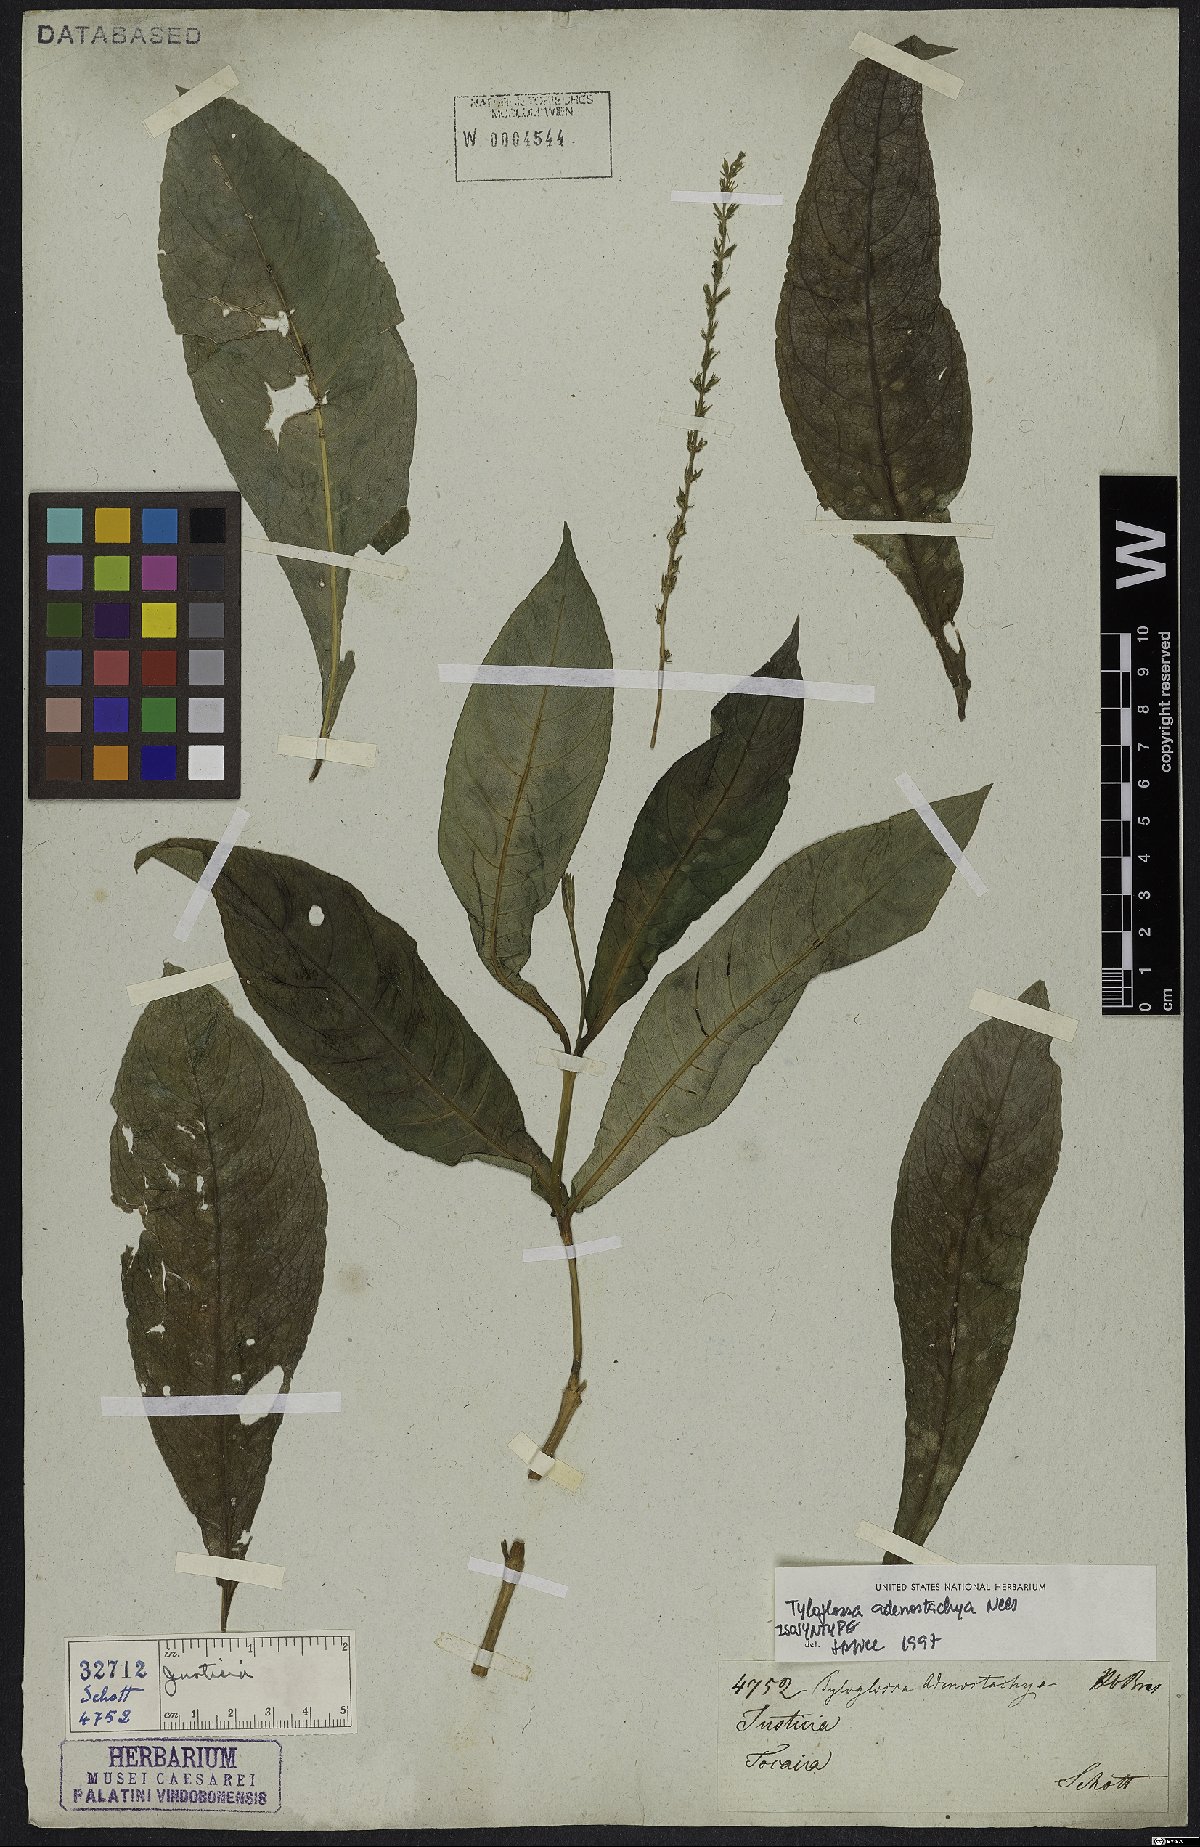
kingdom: Plantae
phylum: Tracheophyta
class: Magnoliopsida
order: Lamiales
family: Acanthaceae
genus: Justicia
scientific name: Justicia Tyloglossa adenostachya
